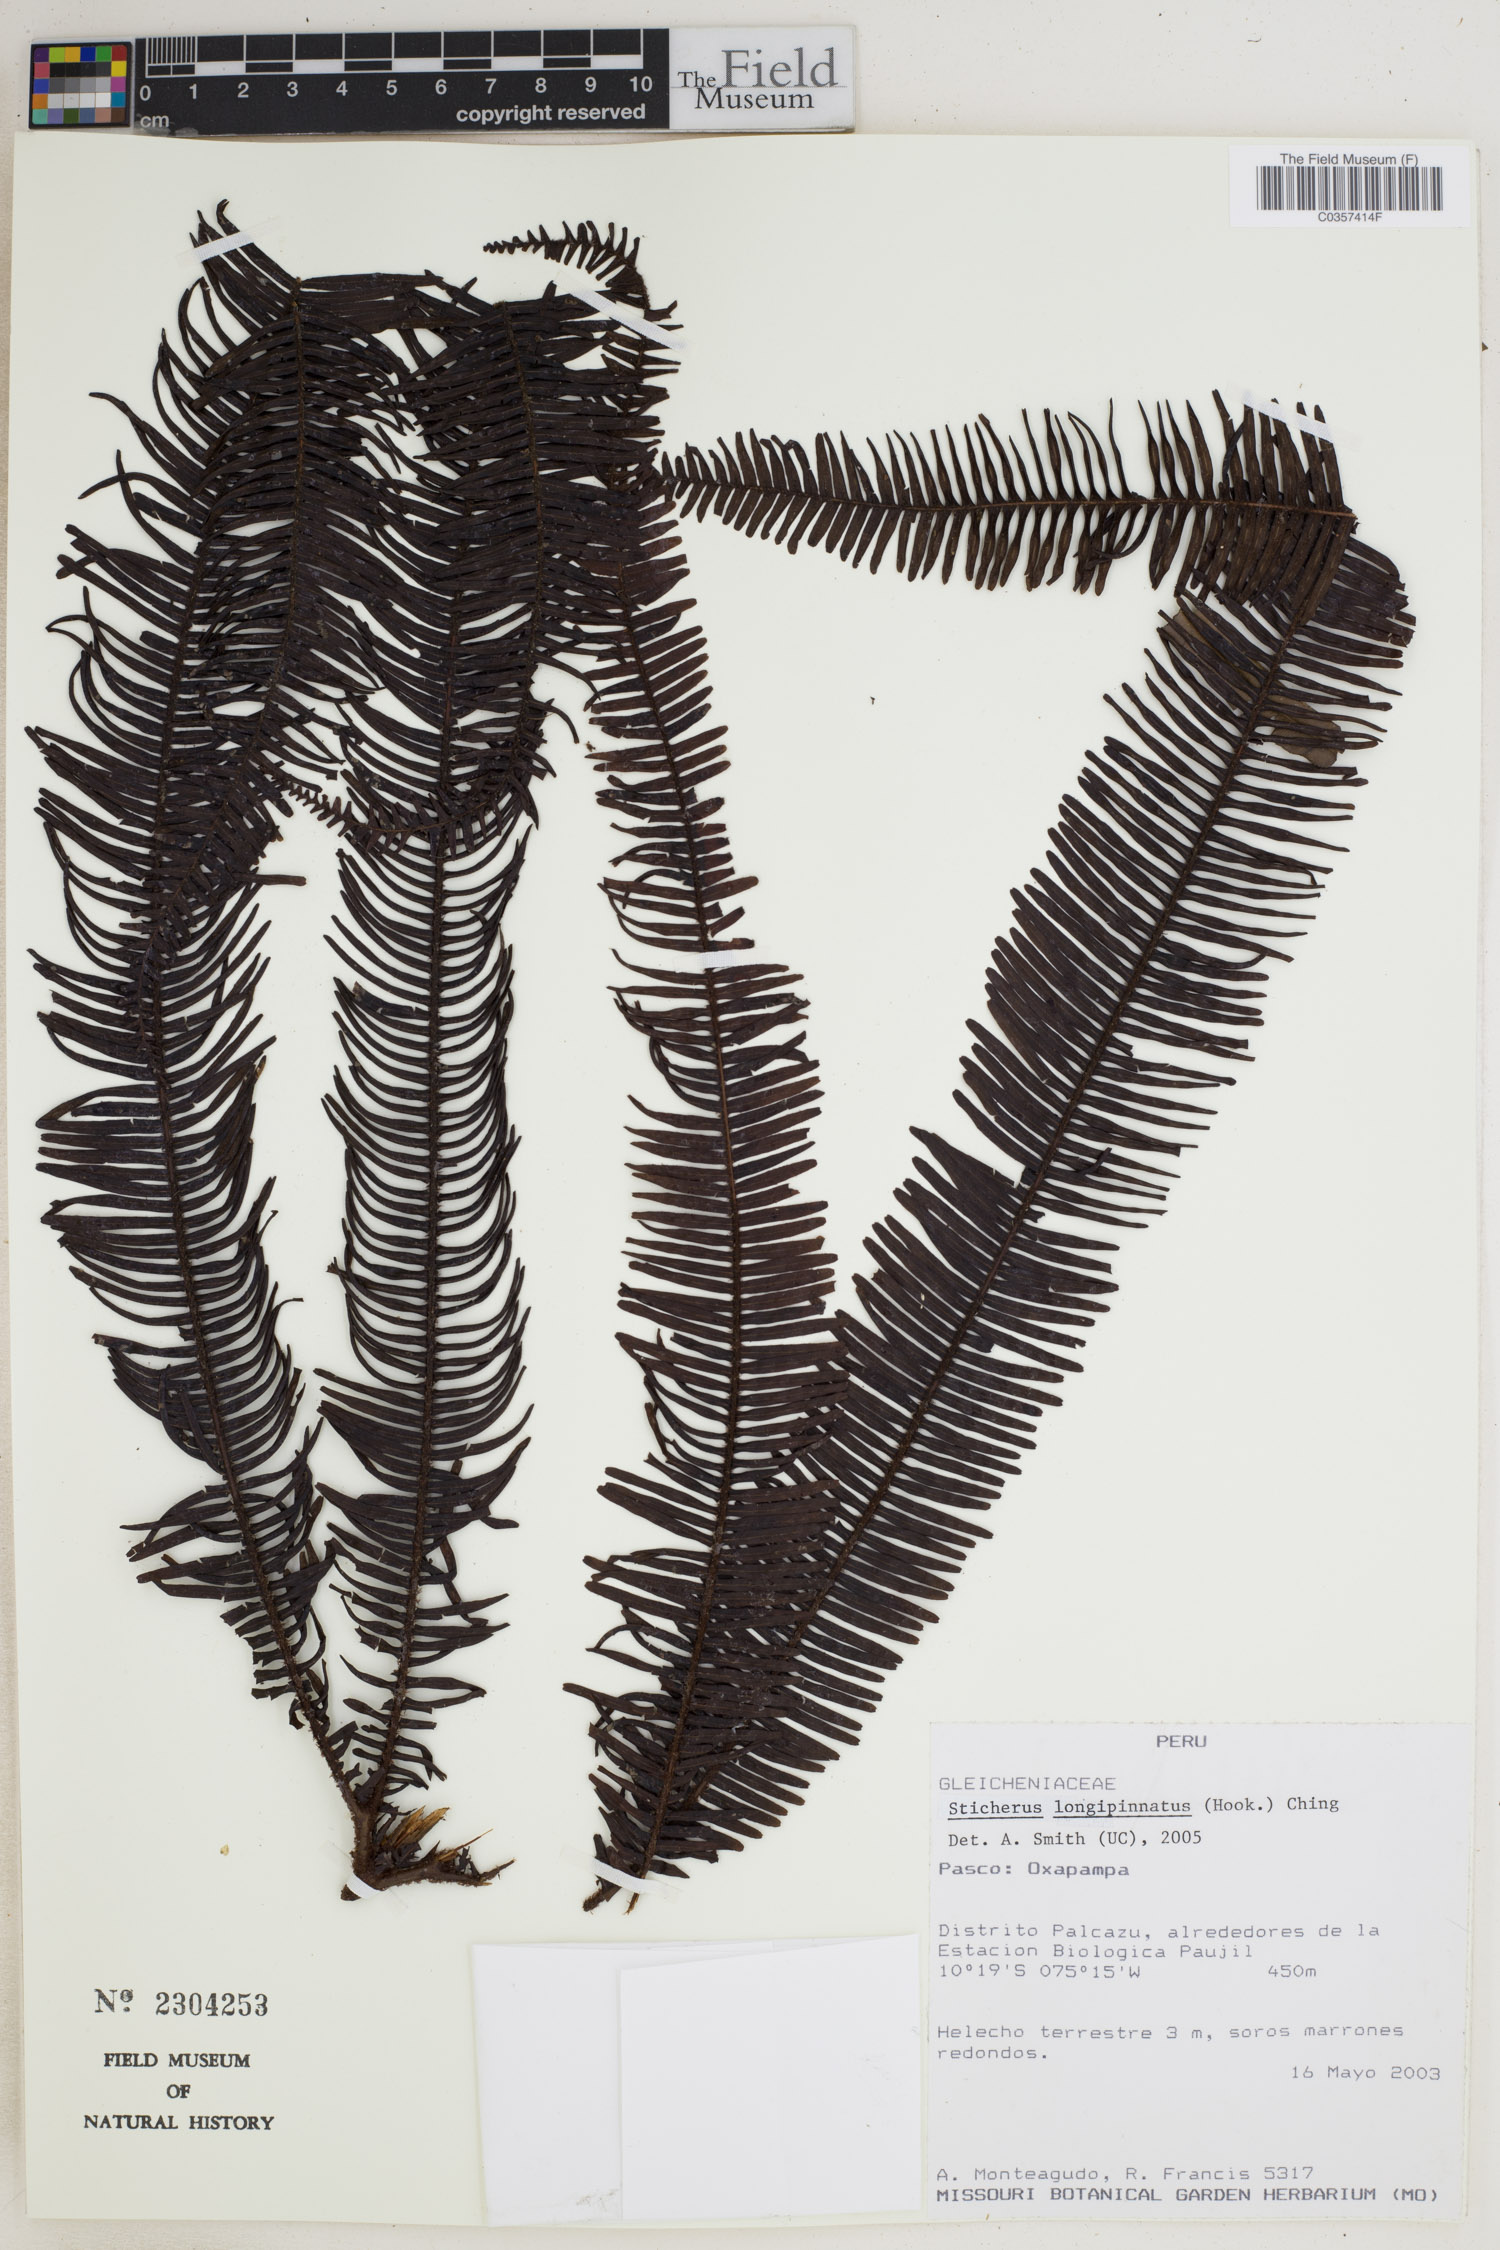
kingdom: Plantae
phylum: Tracheophyta
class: Polypodiopsida
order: Gleicheniales
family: Gleicheniaceae
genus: Sticherus
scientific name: Sticherus longipinnatus
